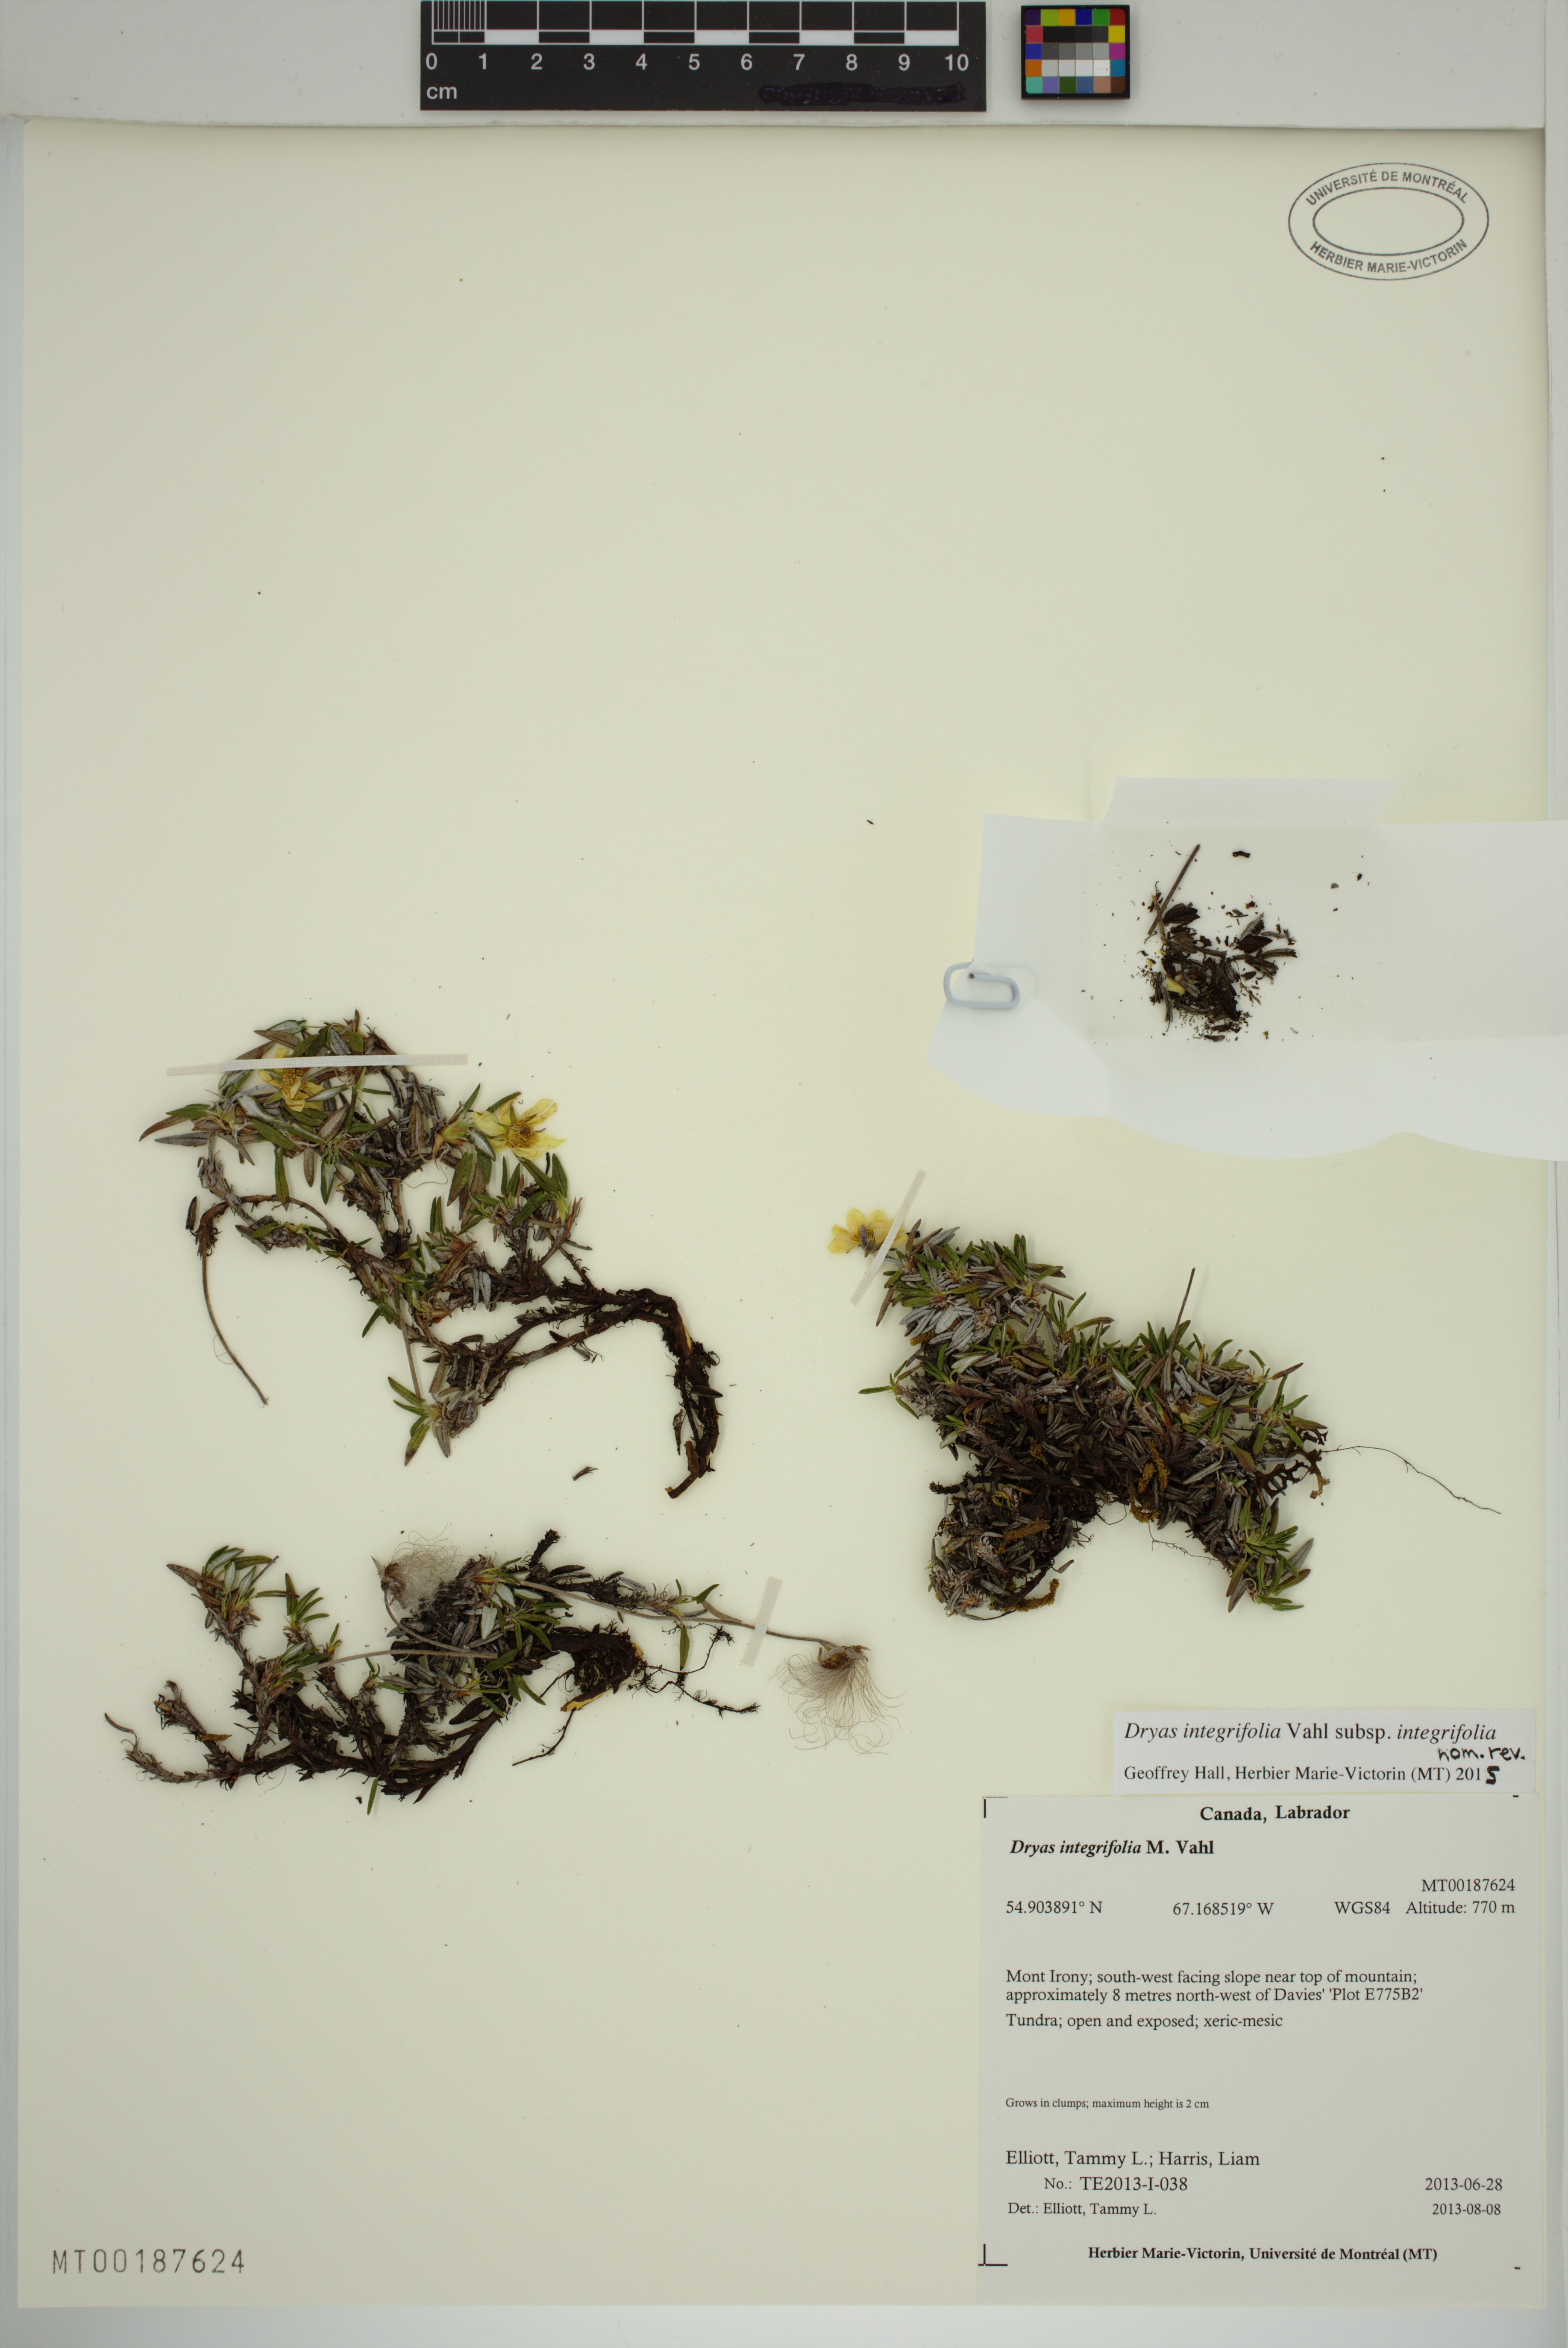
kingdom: Plantae
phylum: Tracheophyta
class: Magnoliopsida
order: Rosales
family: Rosaceae
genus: Dryas
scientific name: Dryas integrifolia
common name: Entire-leaved mountain avens
